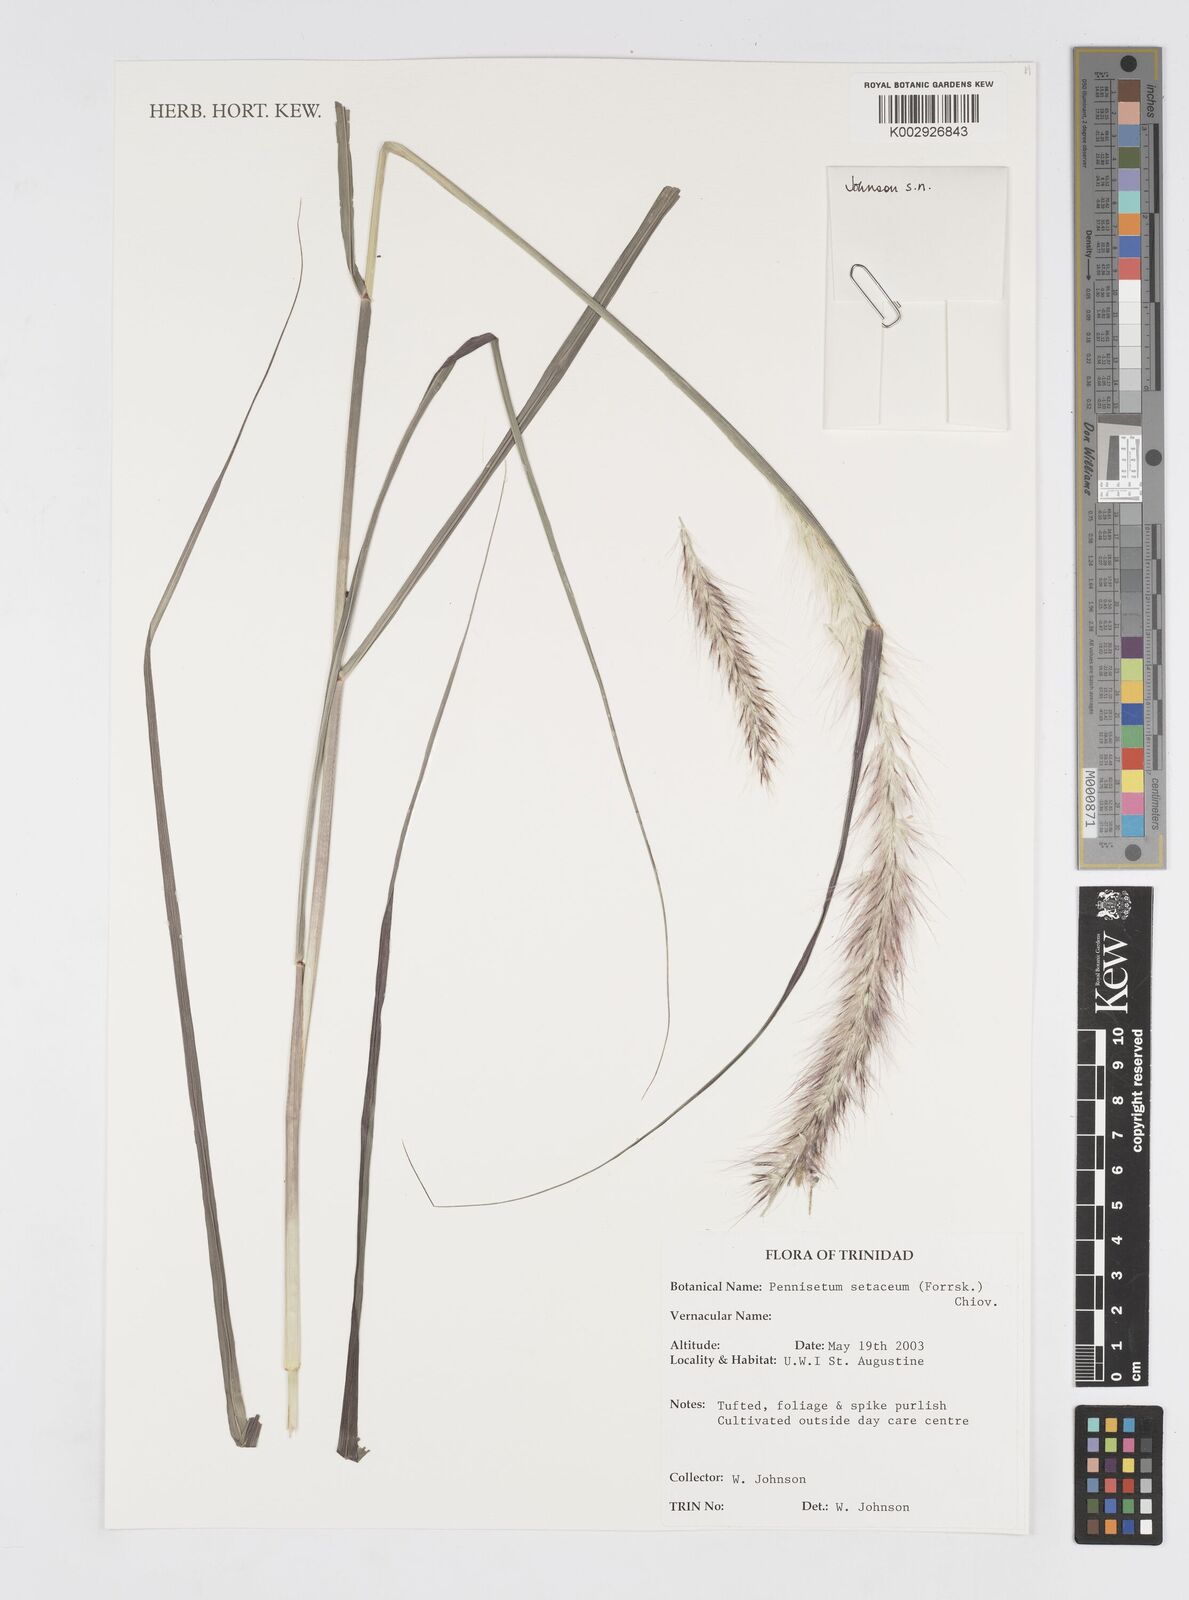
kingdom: Plantae
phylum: Tracheophyta
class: Liliopsida
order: Poales
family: Poaceae
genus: Cenchrus
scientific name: Cenchrus setaceus
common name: Crimson fountaingrass
